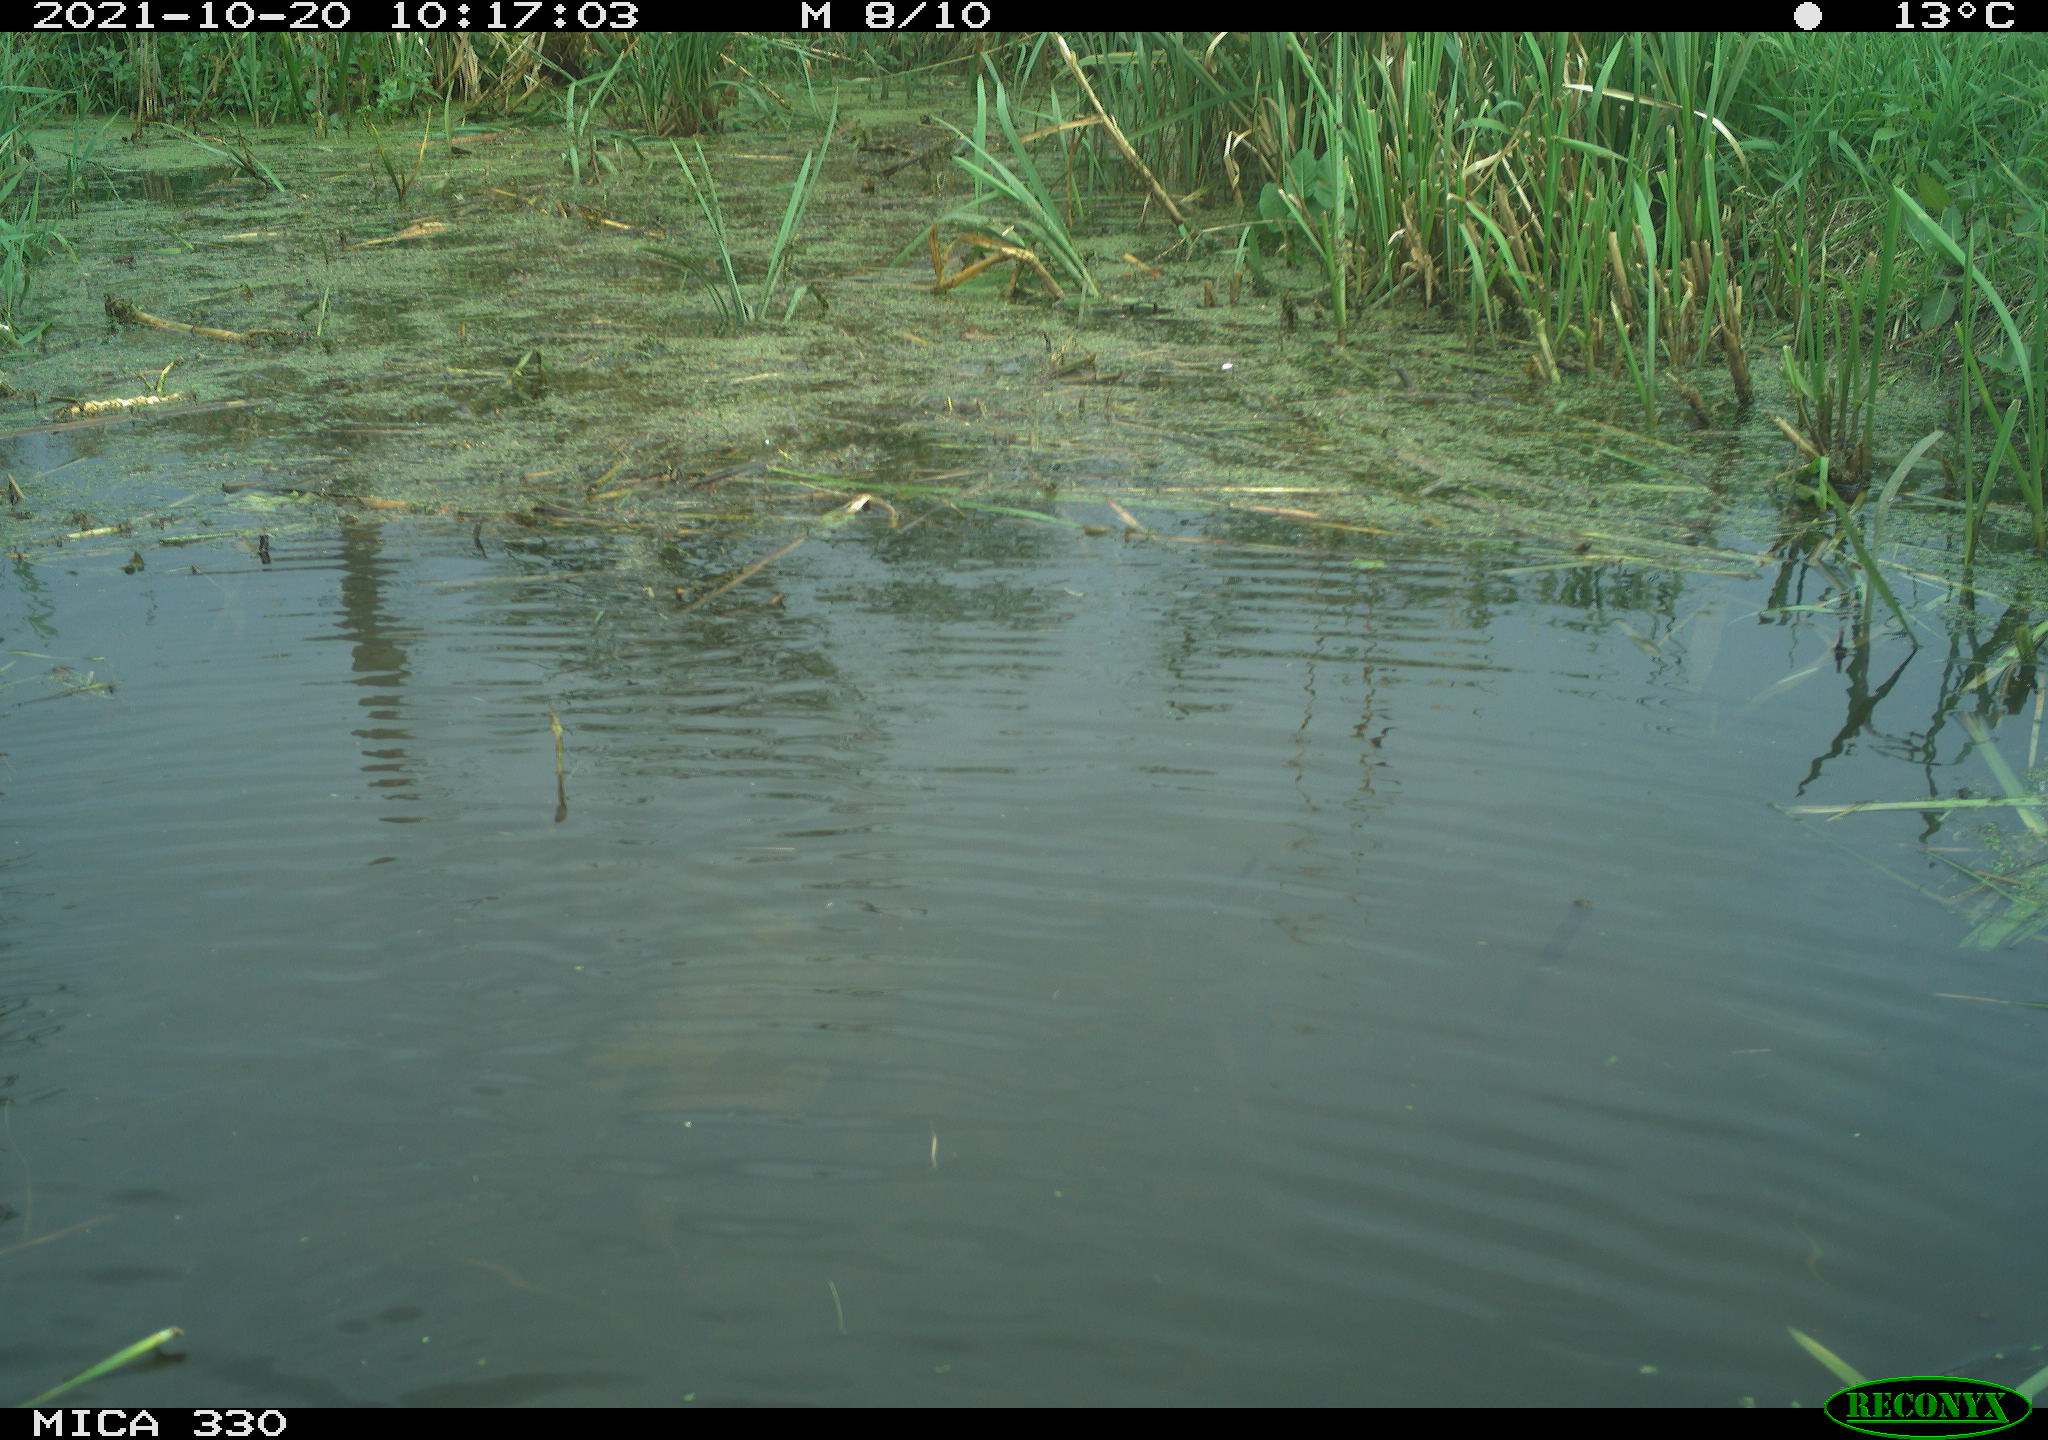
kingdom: Animalia
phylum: Chordata
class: Aves
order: Gruiformes
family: Rallidae
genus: Gallinula
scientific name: Gallinula chloropus
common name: Common moorhen
